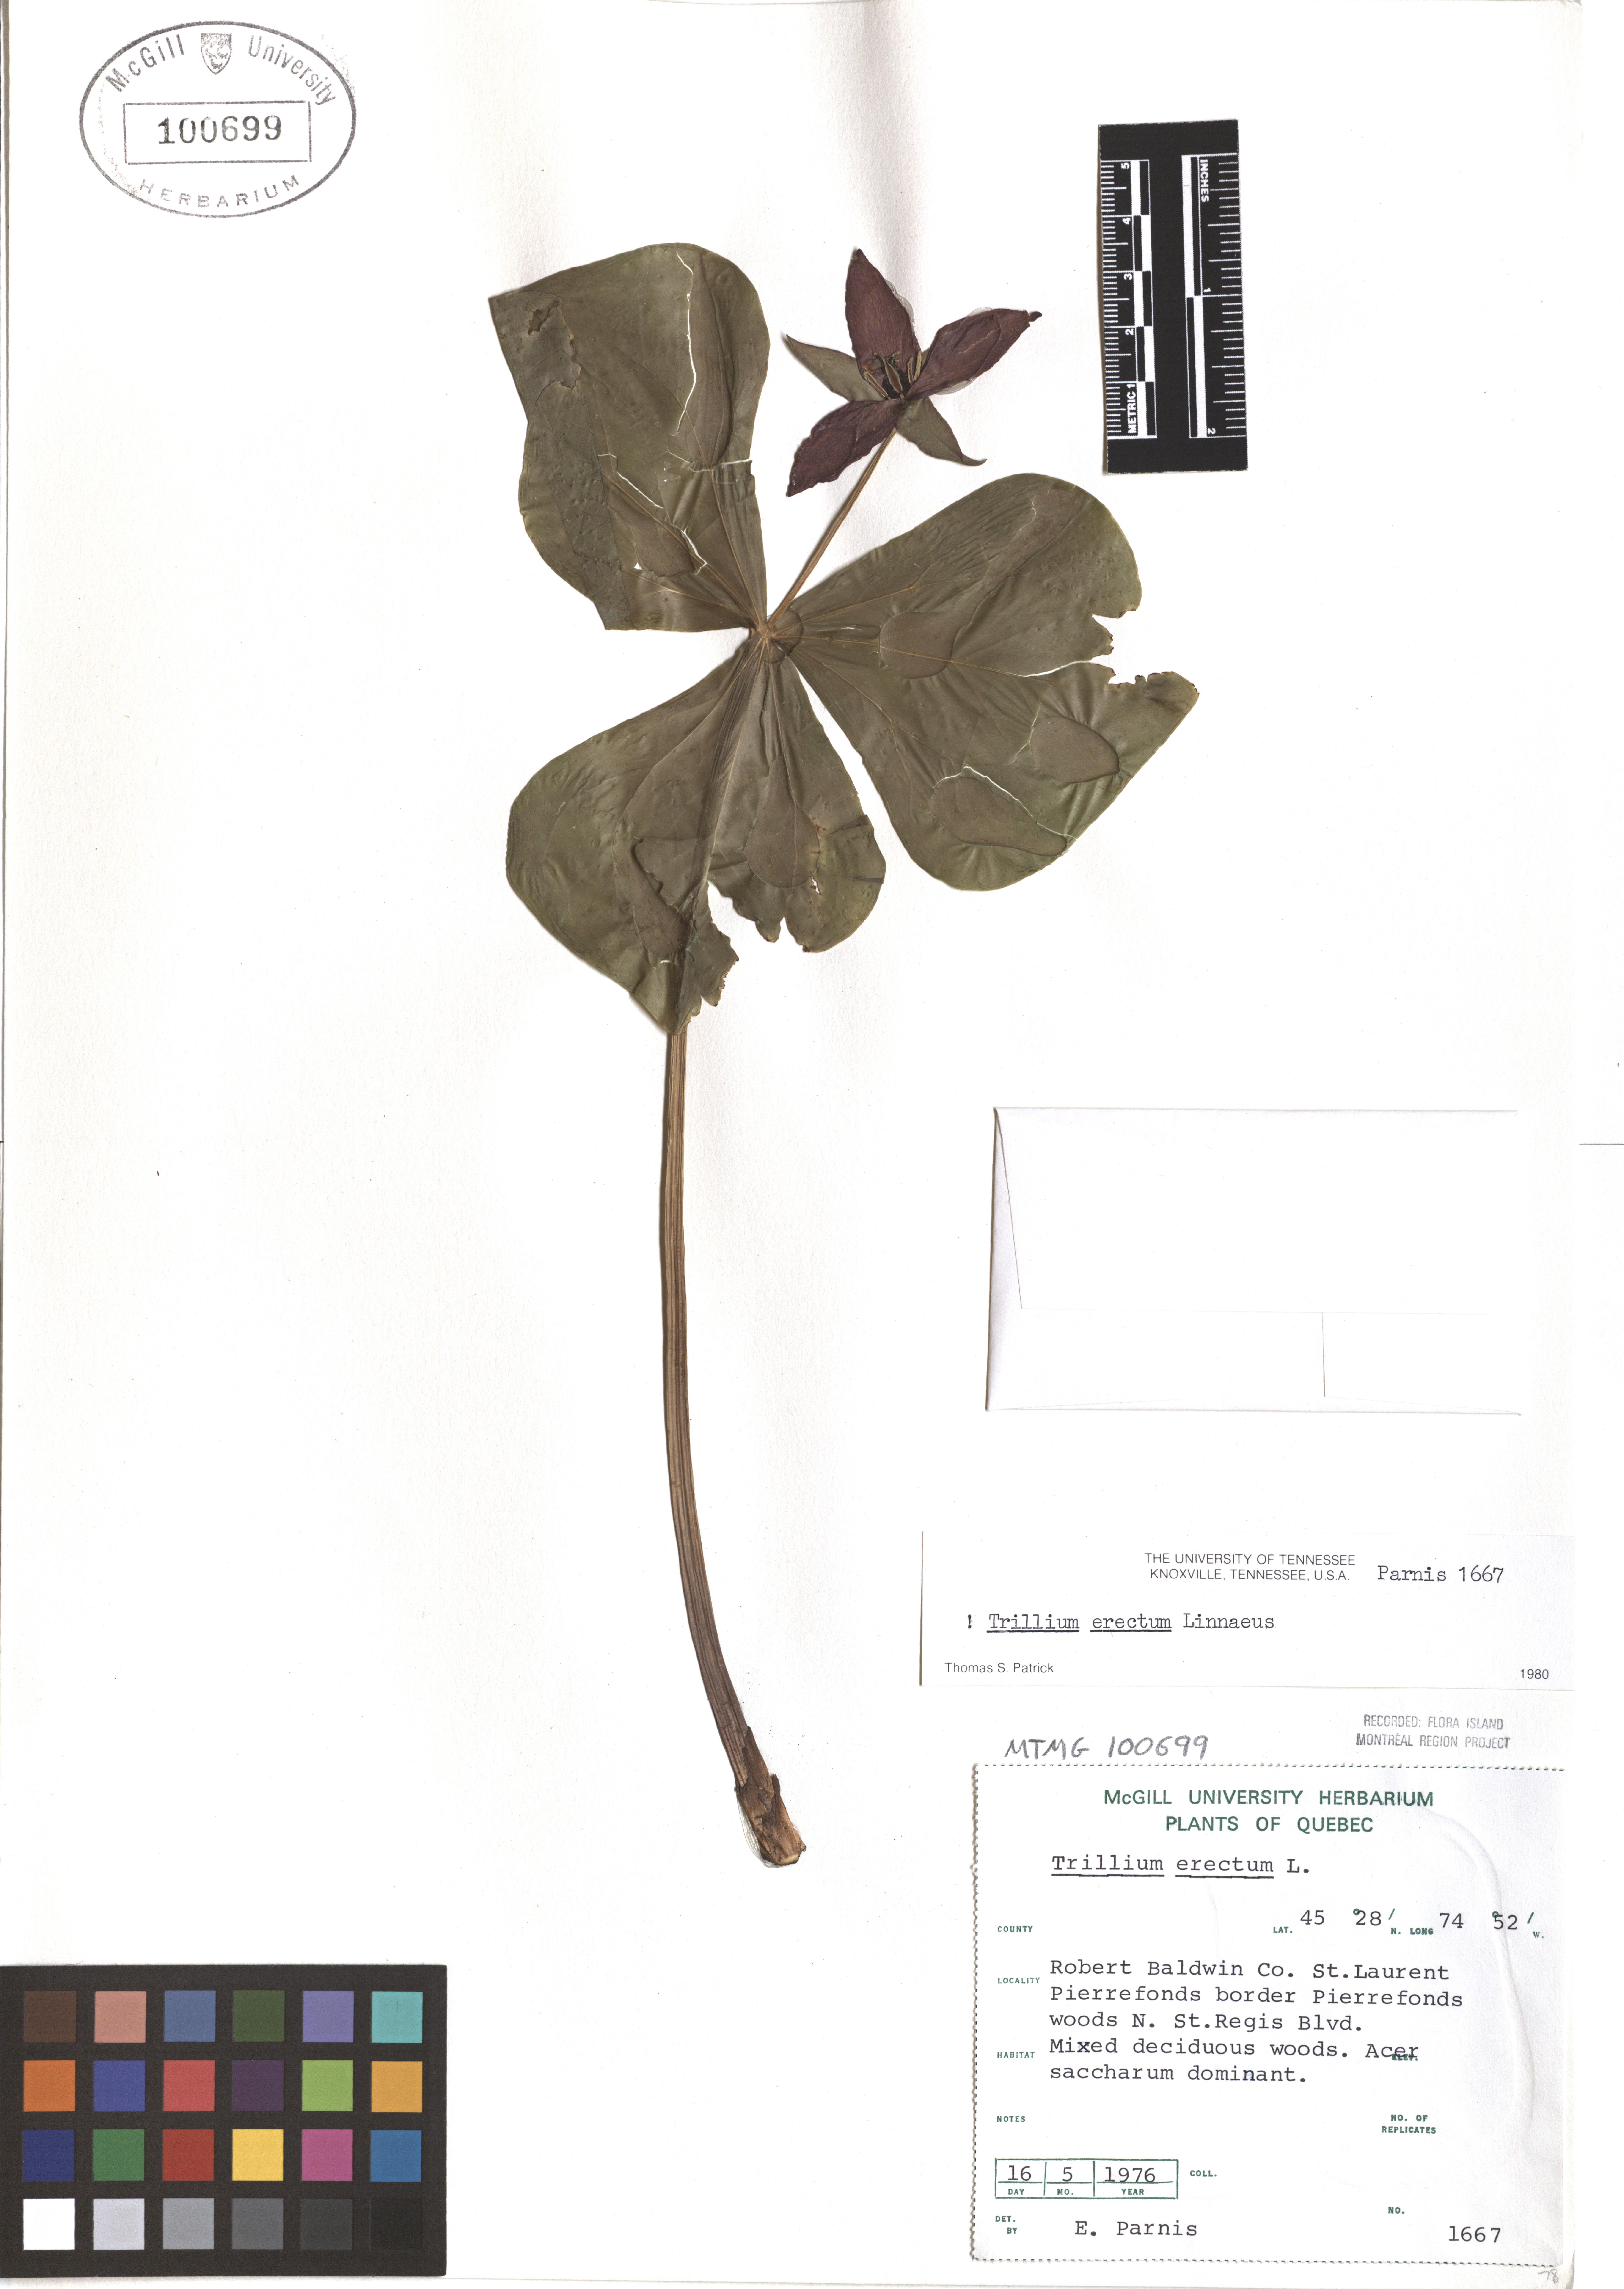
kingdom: Plantae
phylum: Tracheophyta
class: Liliopsida
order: Liliales
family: Melanthiaceae
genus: Trillium
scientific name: Trillium erectum
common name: Purple trillium
